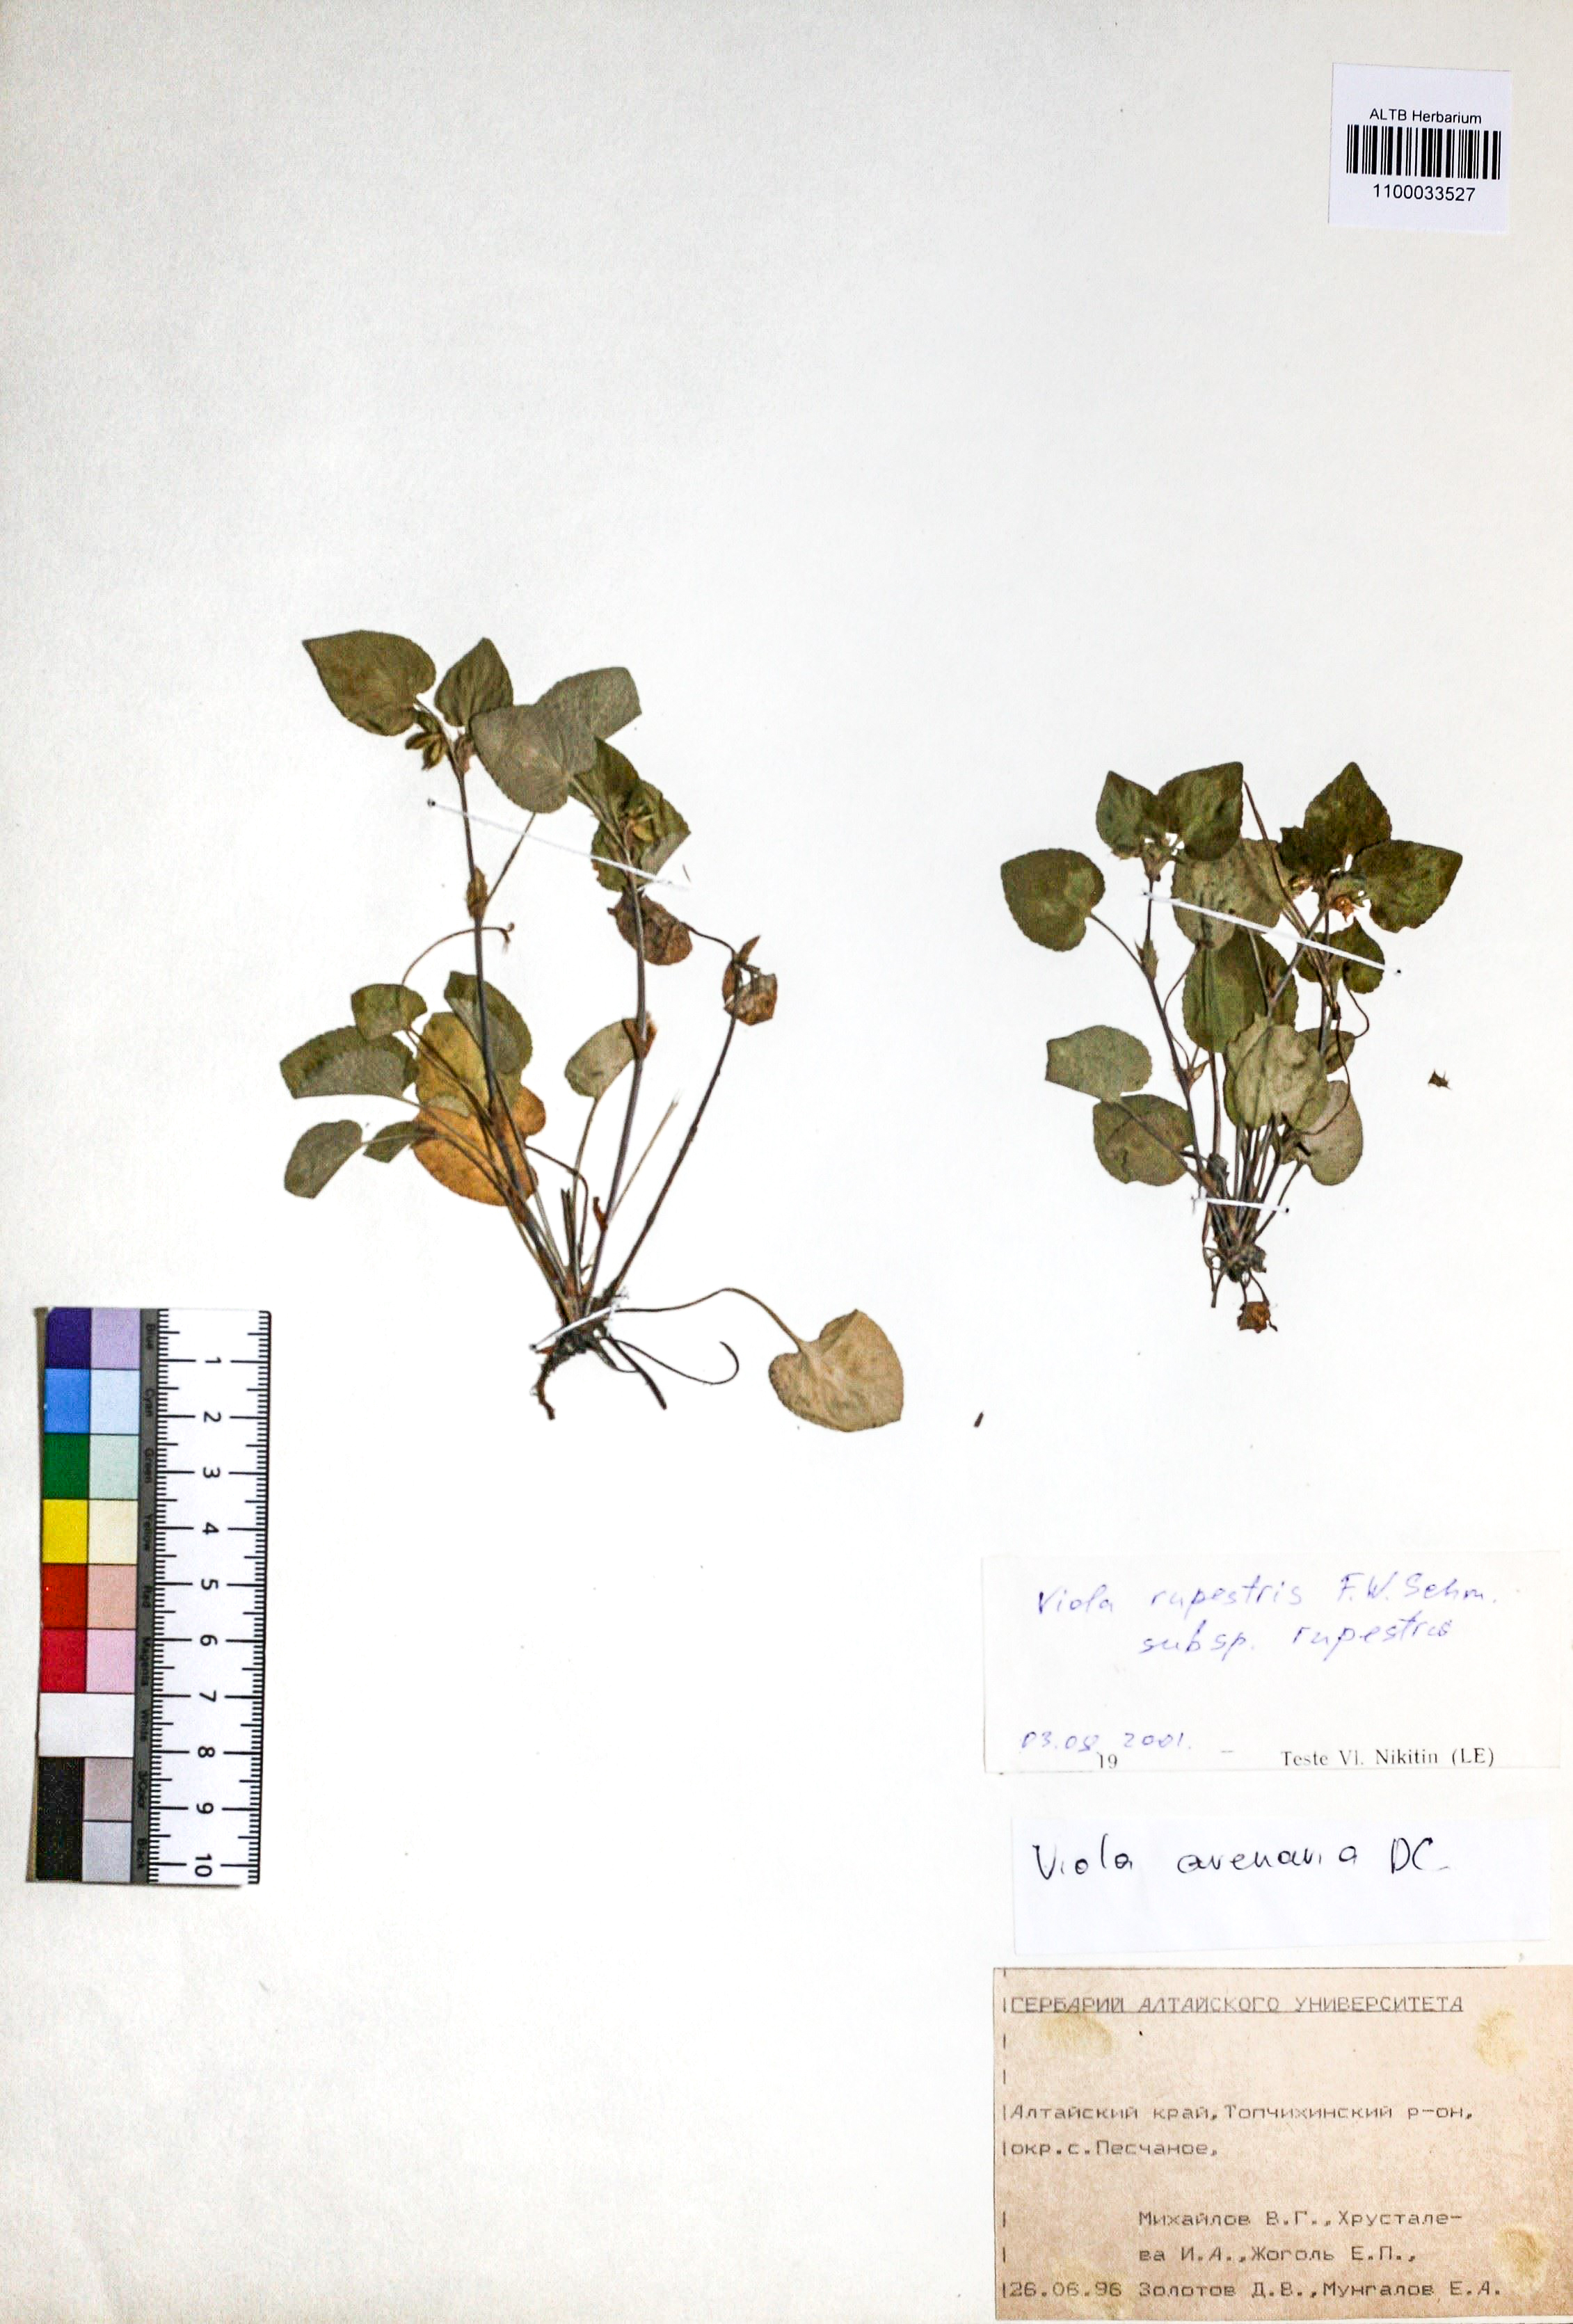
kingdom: Plantae
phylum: Tracheophyta
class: Magnoliopsida
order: Malpighiales
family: Violaceae
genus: Viola
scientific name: Viola rupestris
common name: Teesdale violet
